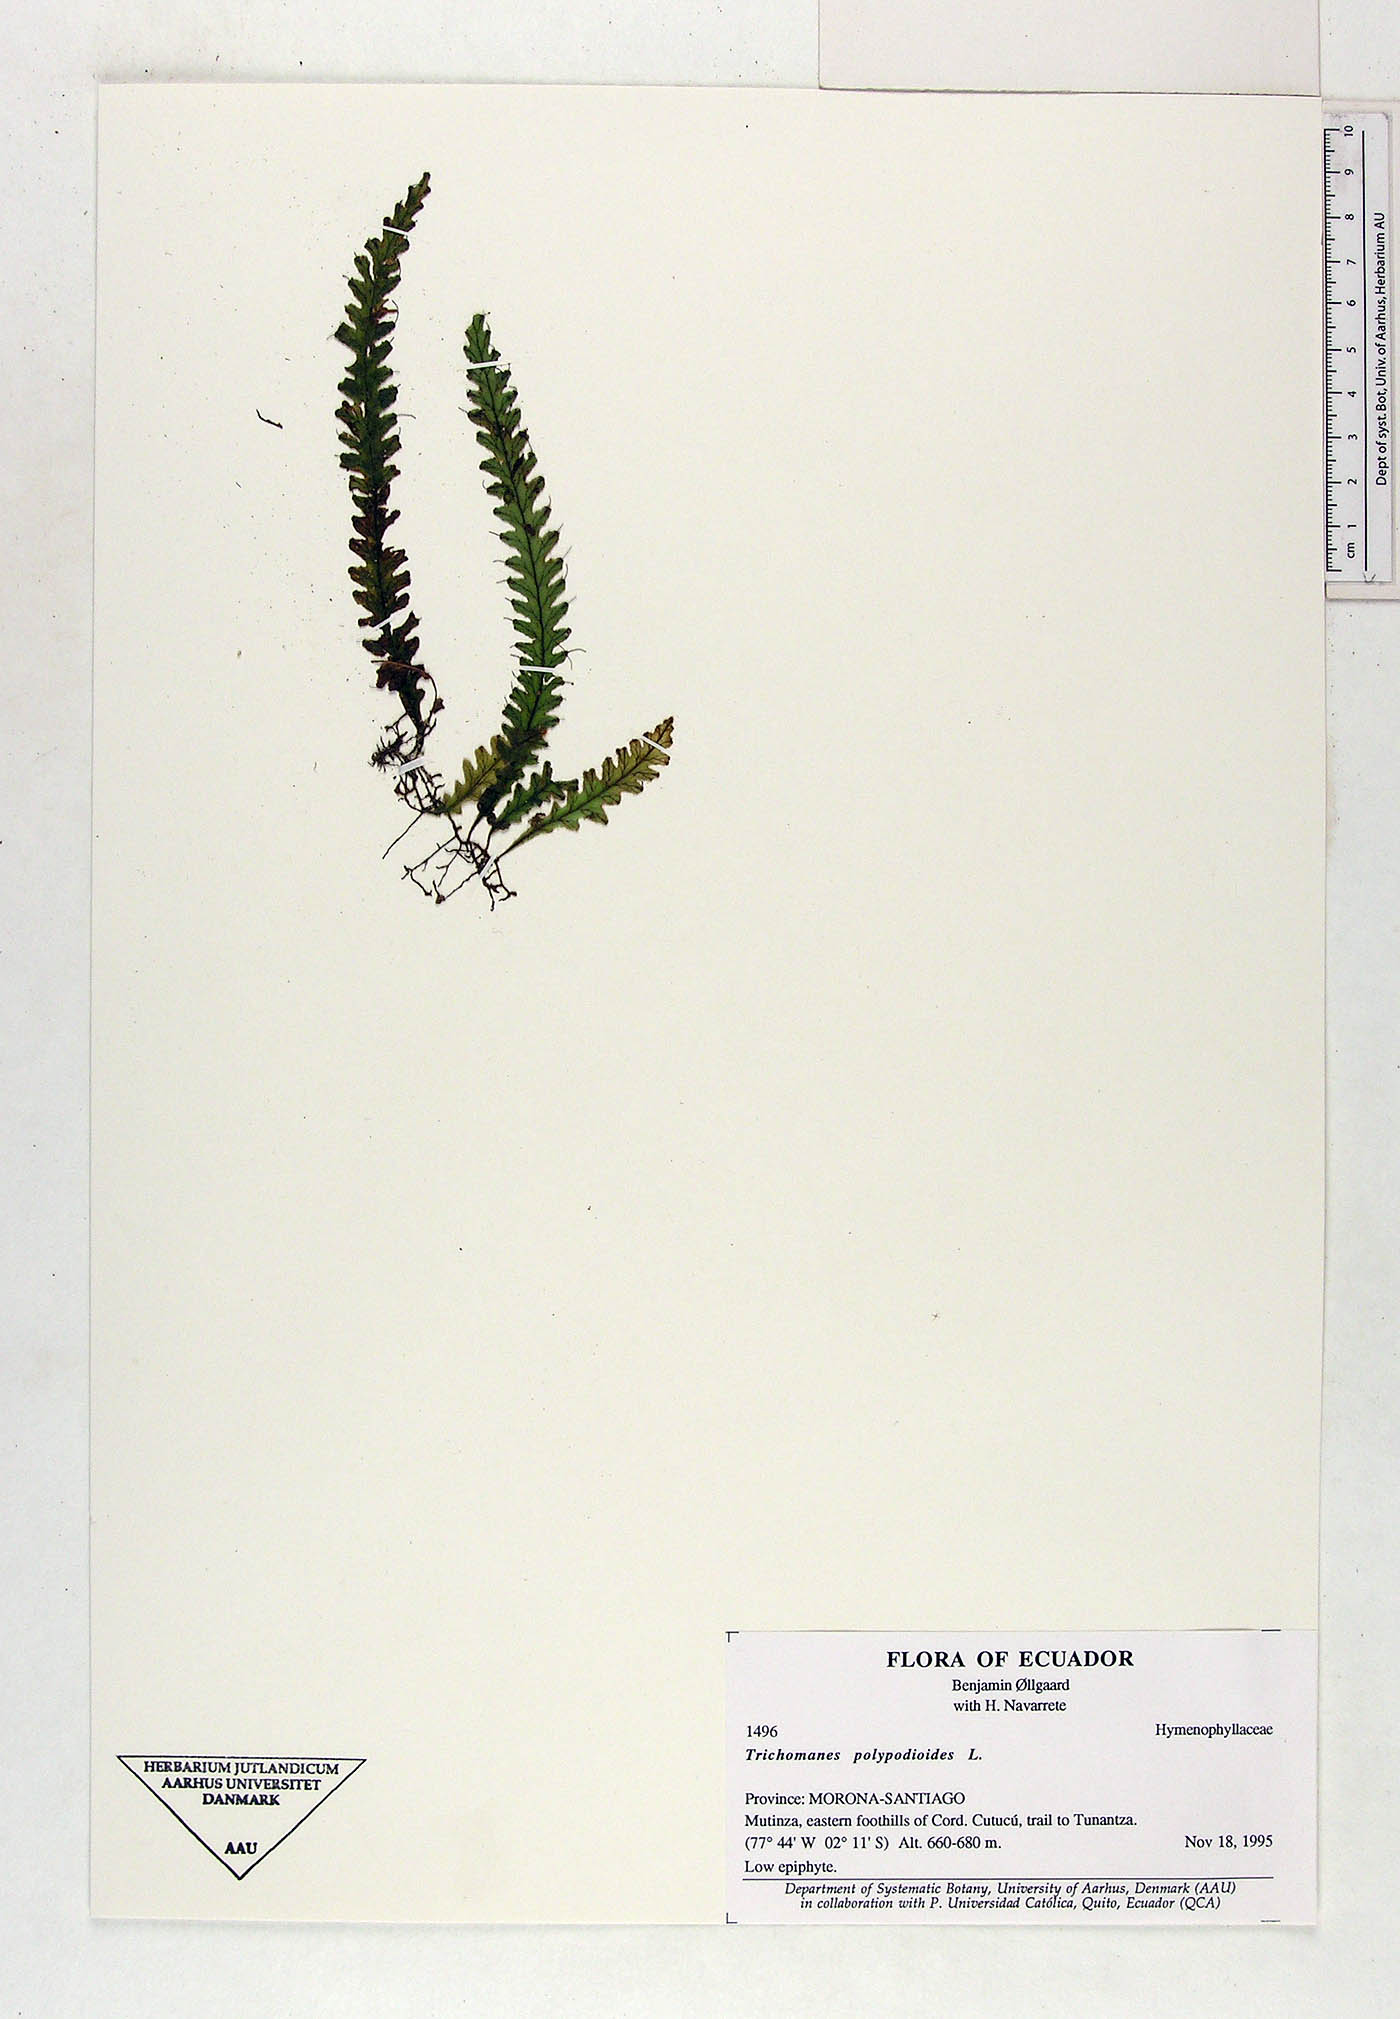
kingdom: Plantae
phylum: Tracheophyta
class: Polypodiopsida
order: Hymenophyllales
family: Hymenophyllaceae
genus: Trichomanes
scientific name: Trichomanes polypodioides
